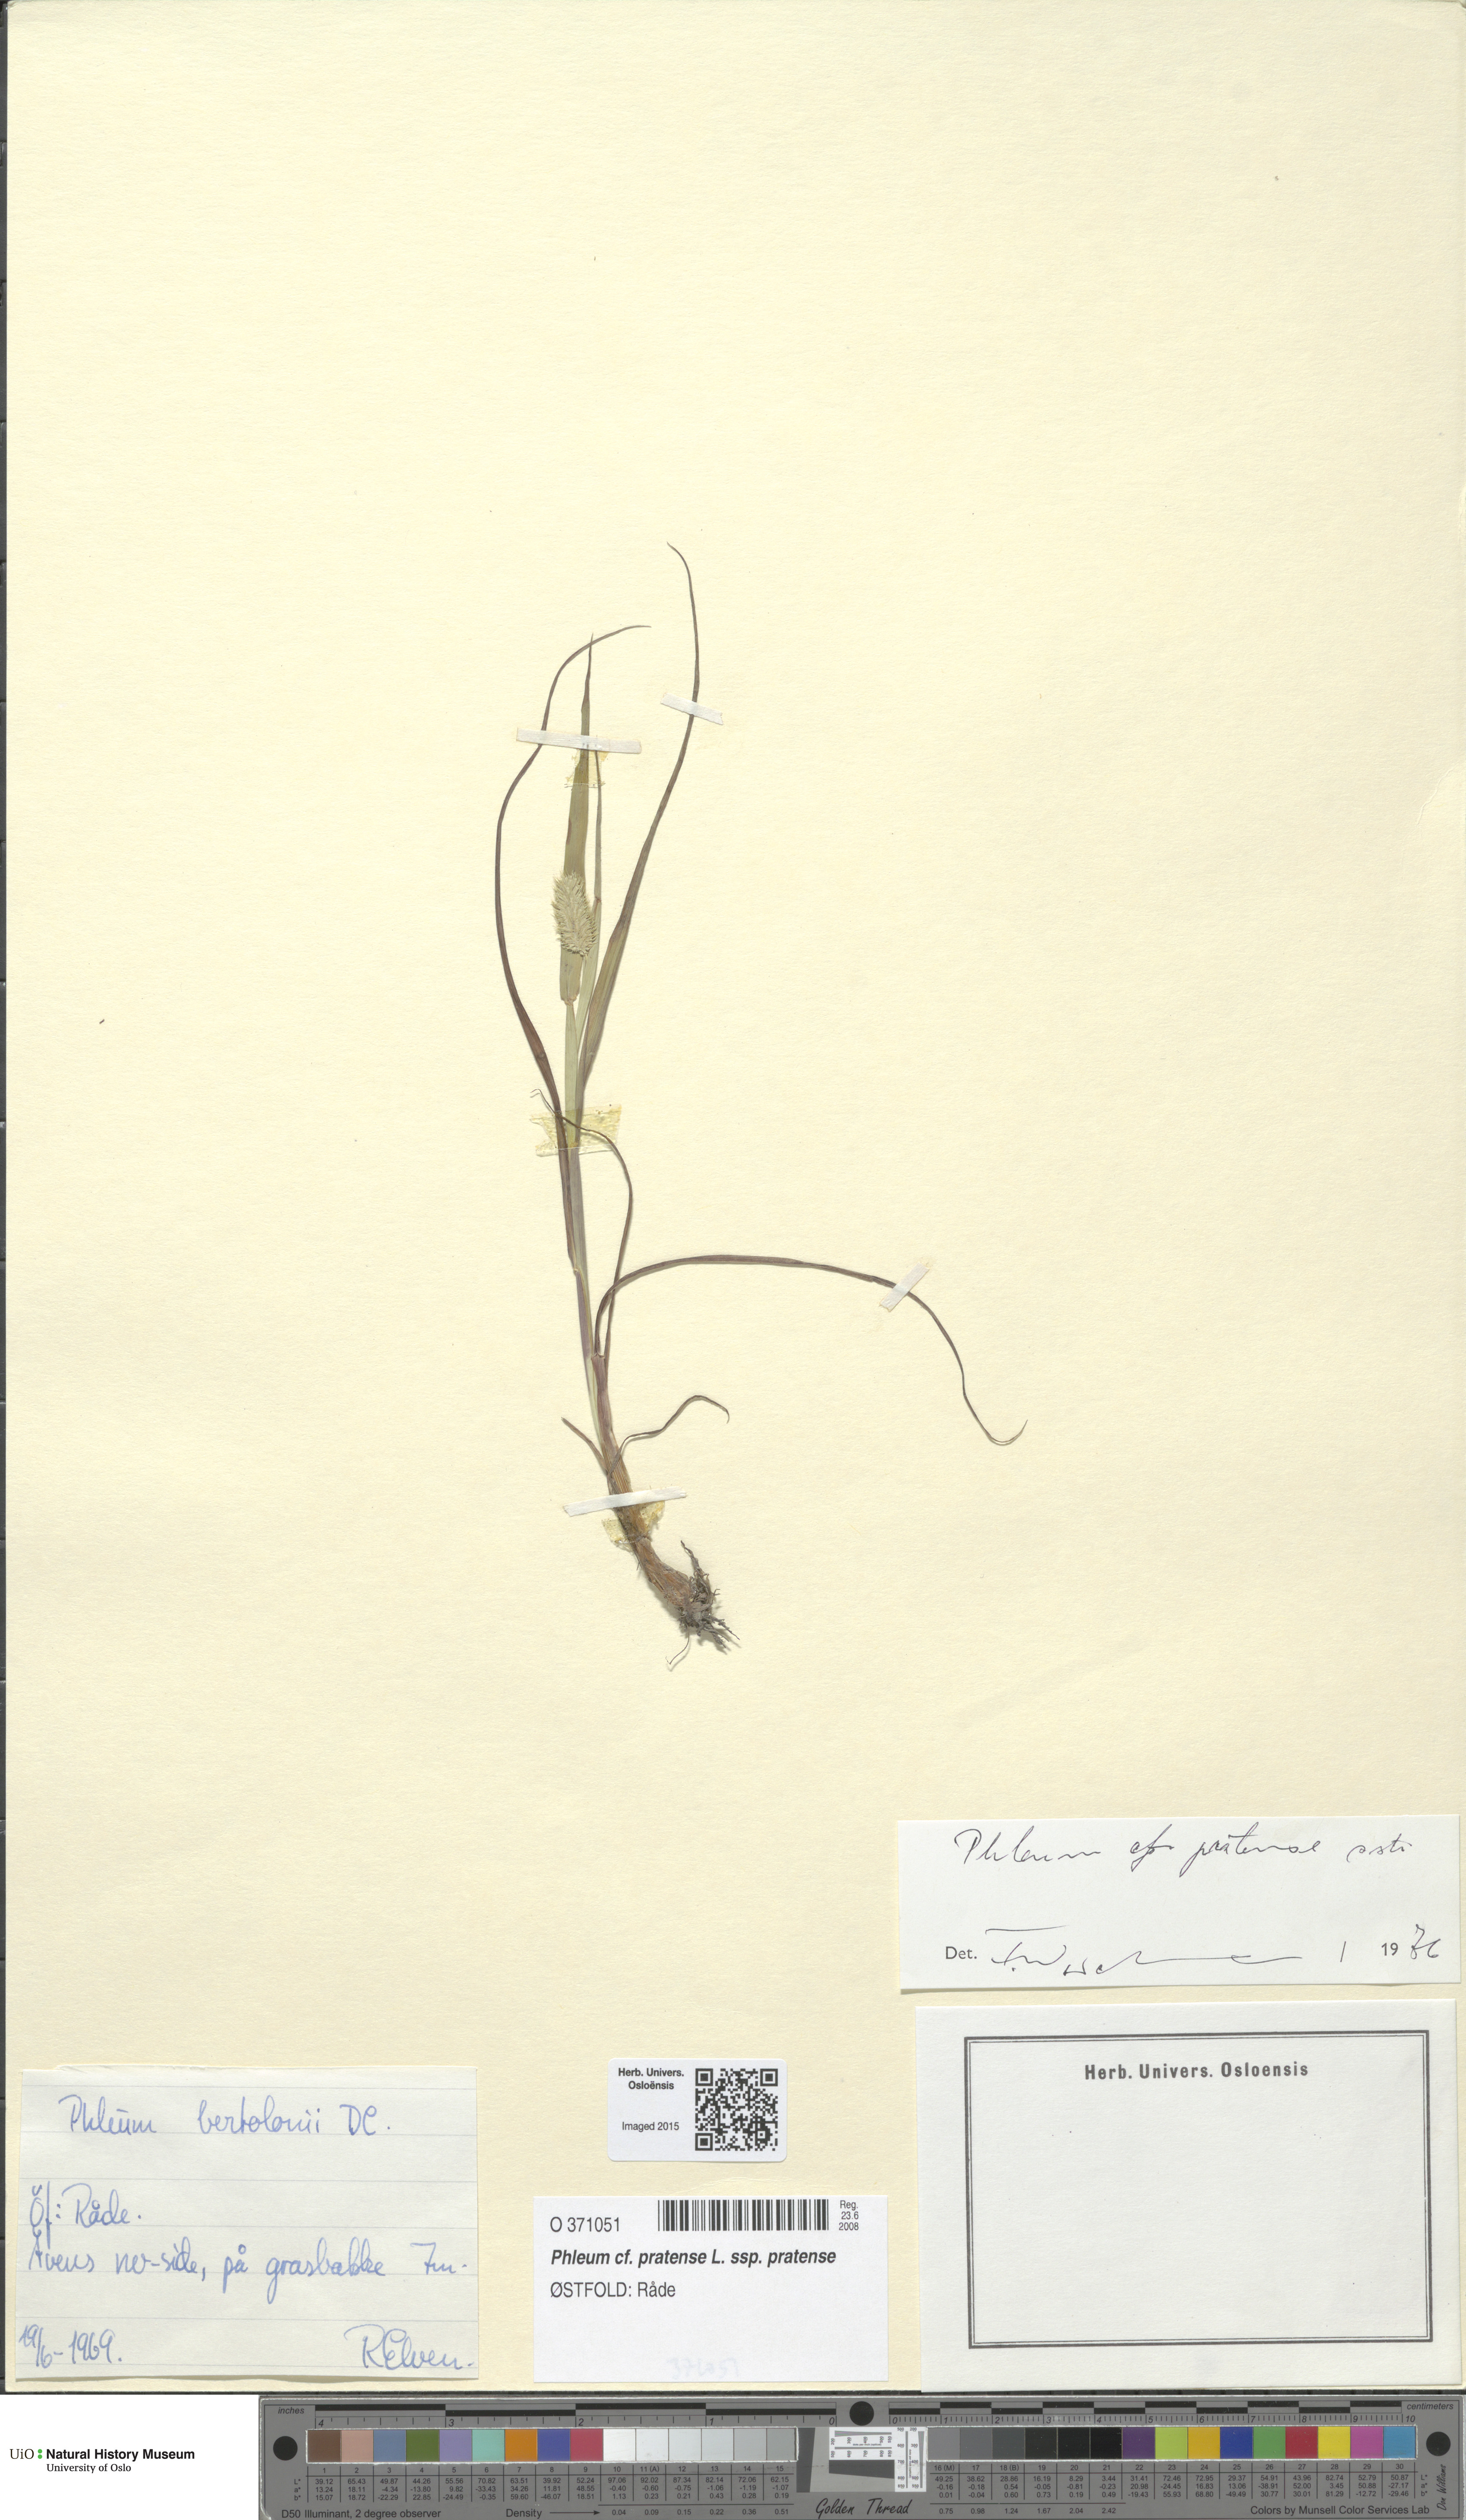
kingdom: Plantae
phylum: Tracheophyta
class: Liliopsida
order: Poales
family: Poaceae
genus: Phleum
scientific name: Phleum pratense
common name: Timothy grass
